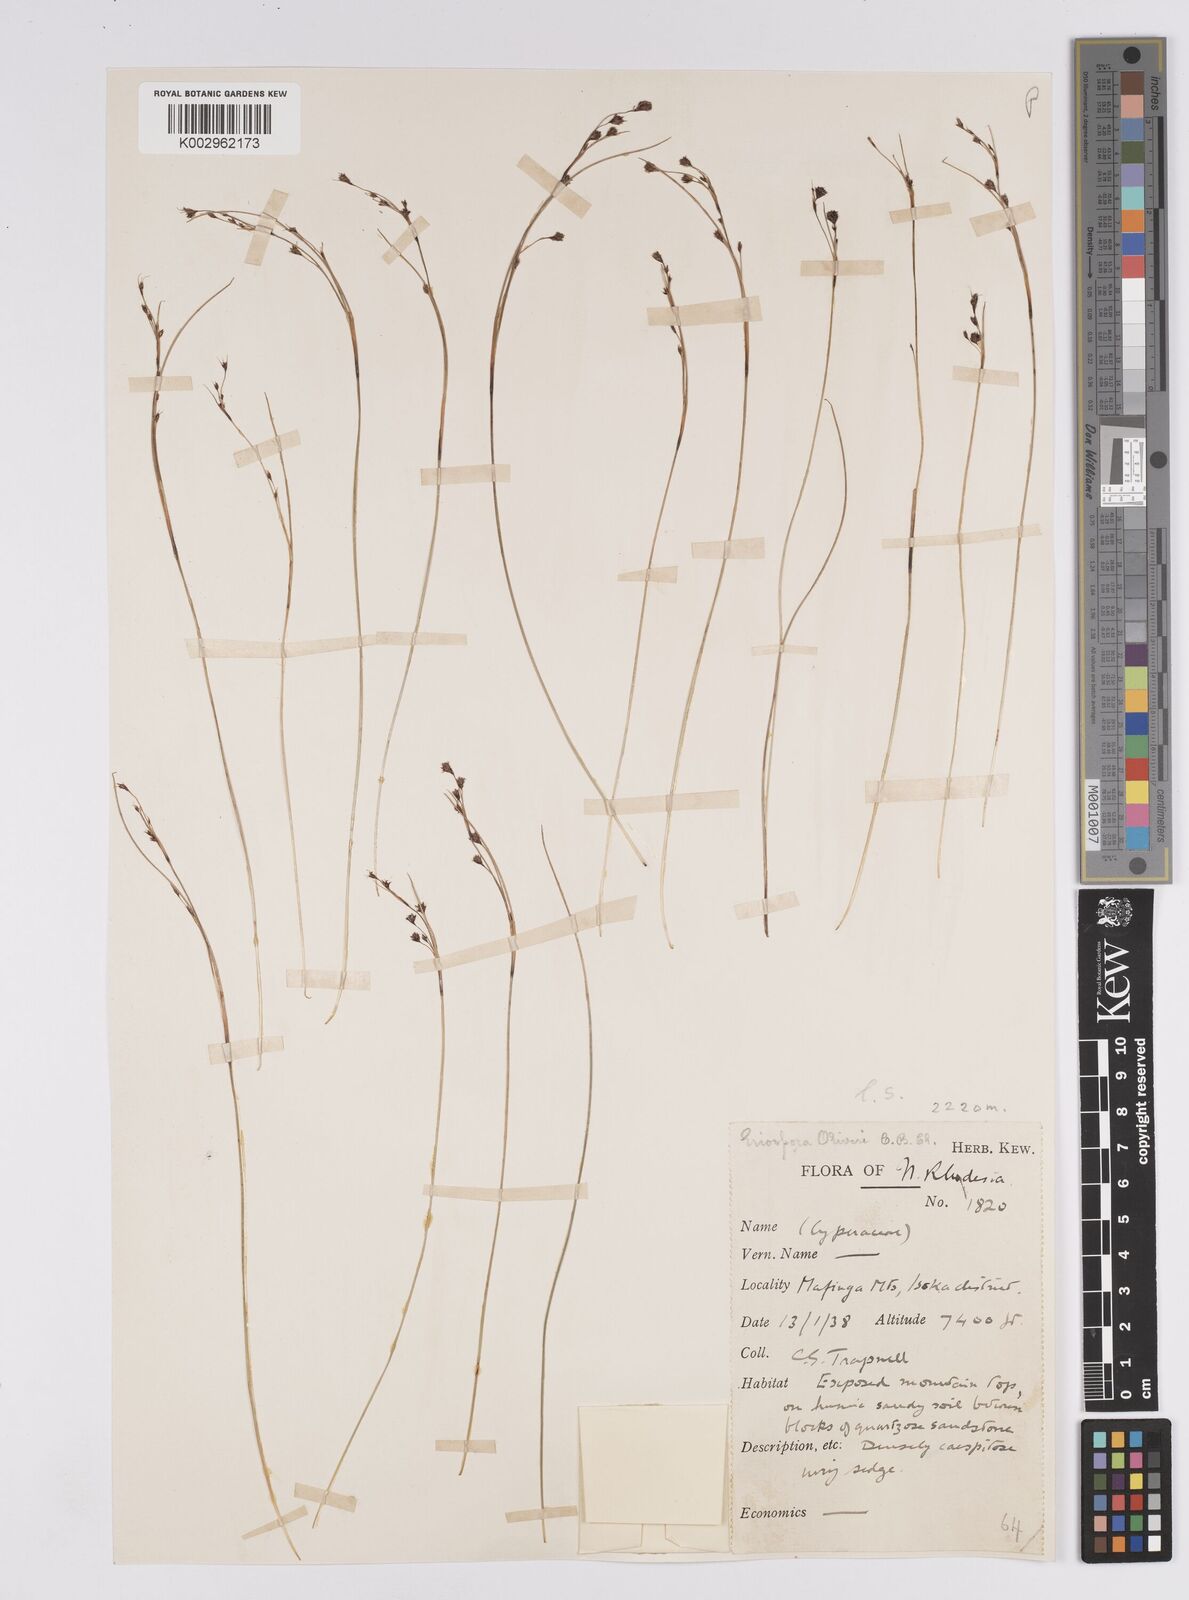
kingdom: Plantae
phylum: Tracheophyta
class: Liliopsida
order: Poales
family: Cyperaceae
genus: Coleochloa
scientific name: Coleochloa setifera
